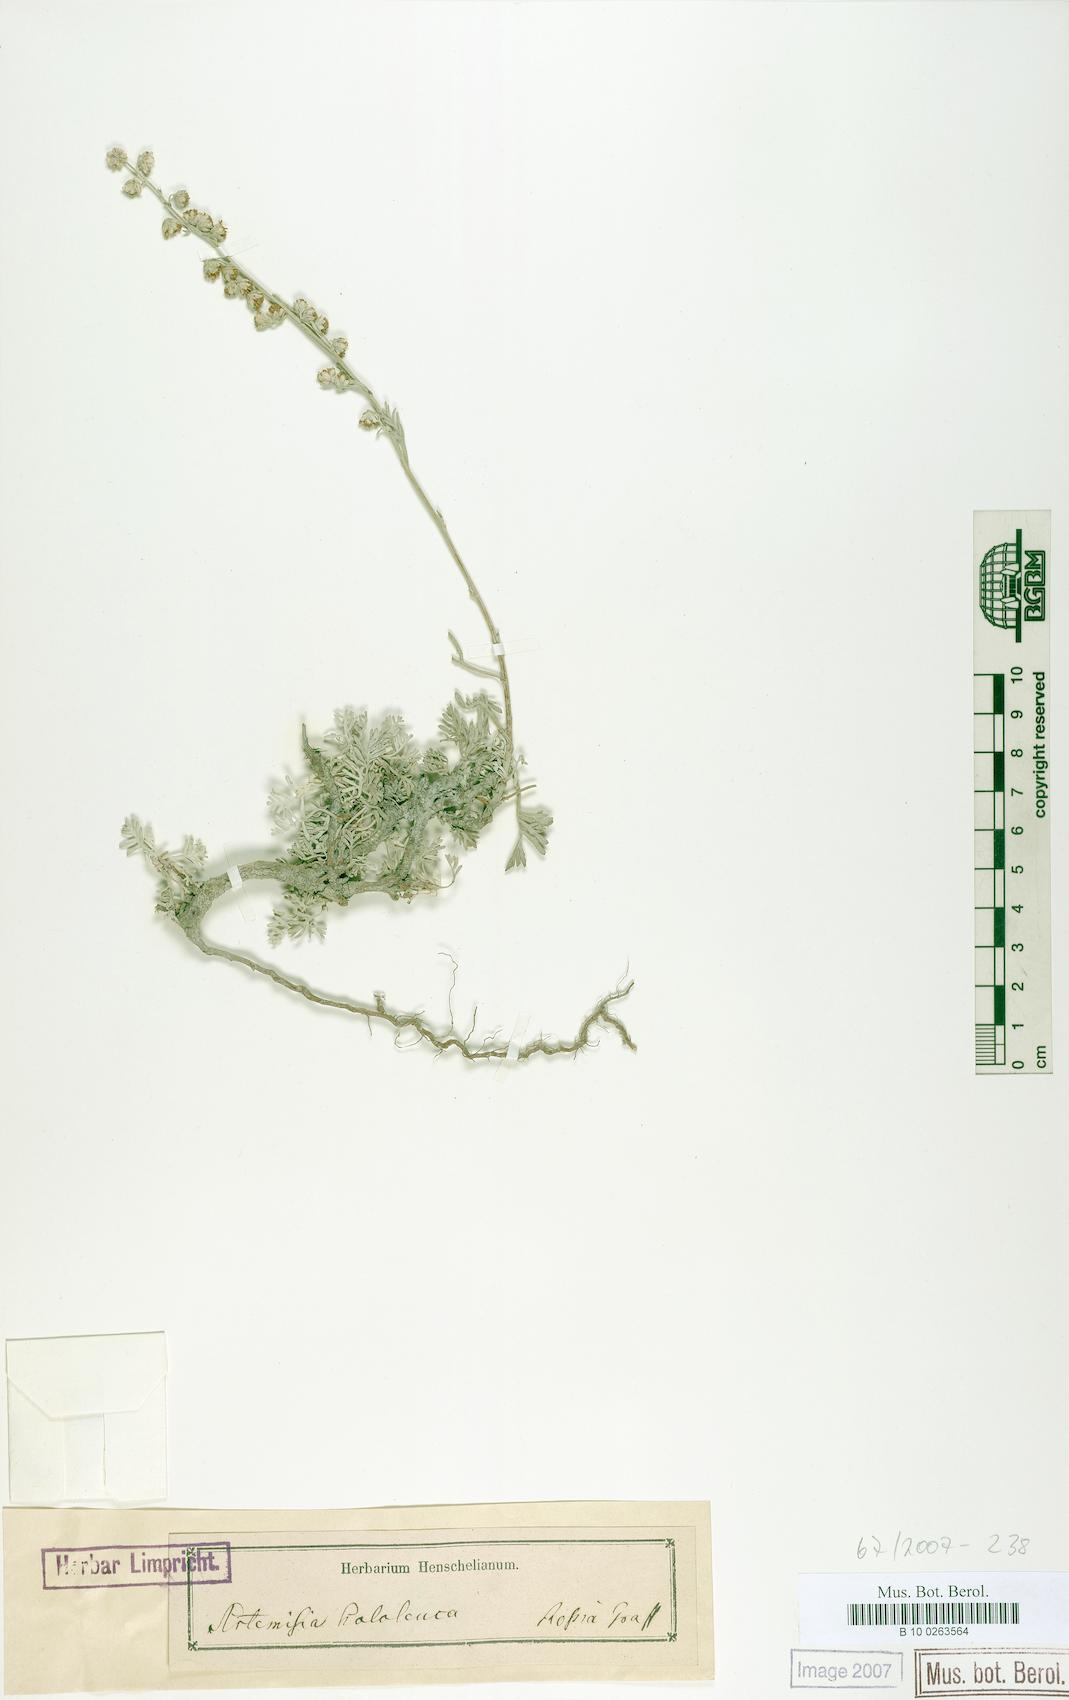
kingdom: Plantae
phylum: Tracheophyta
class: Magnoliopsida
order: Asterales
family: Asteraceae
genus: Artemisia
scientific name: Artemisia hololeuca
